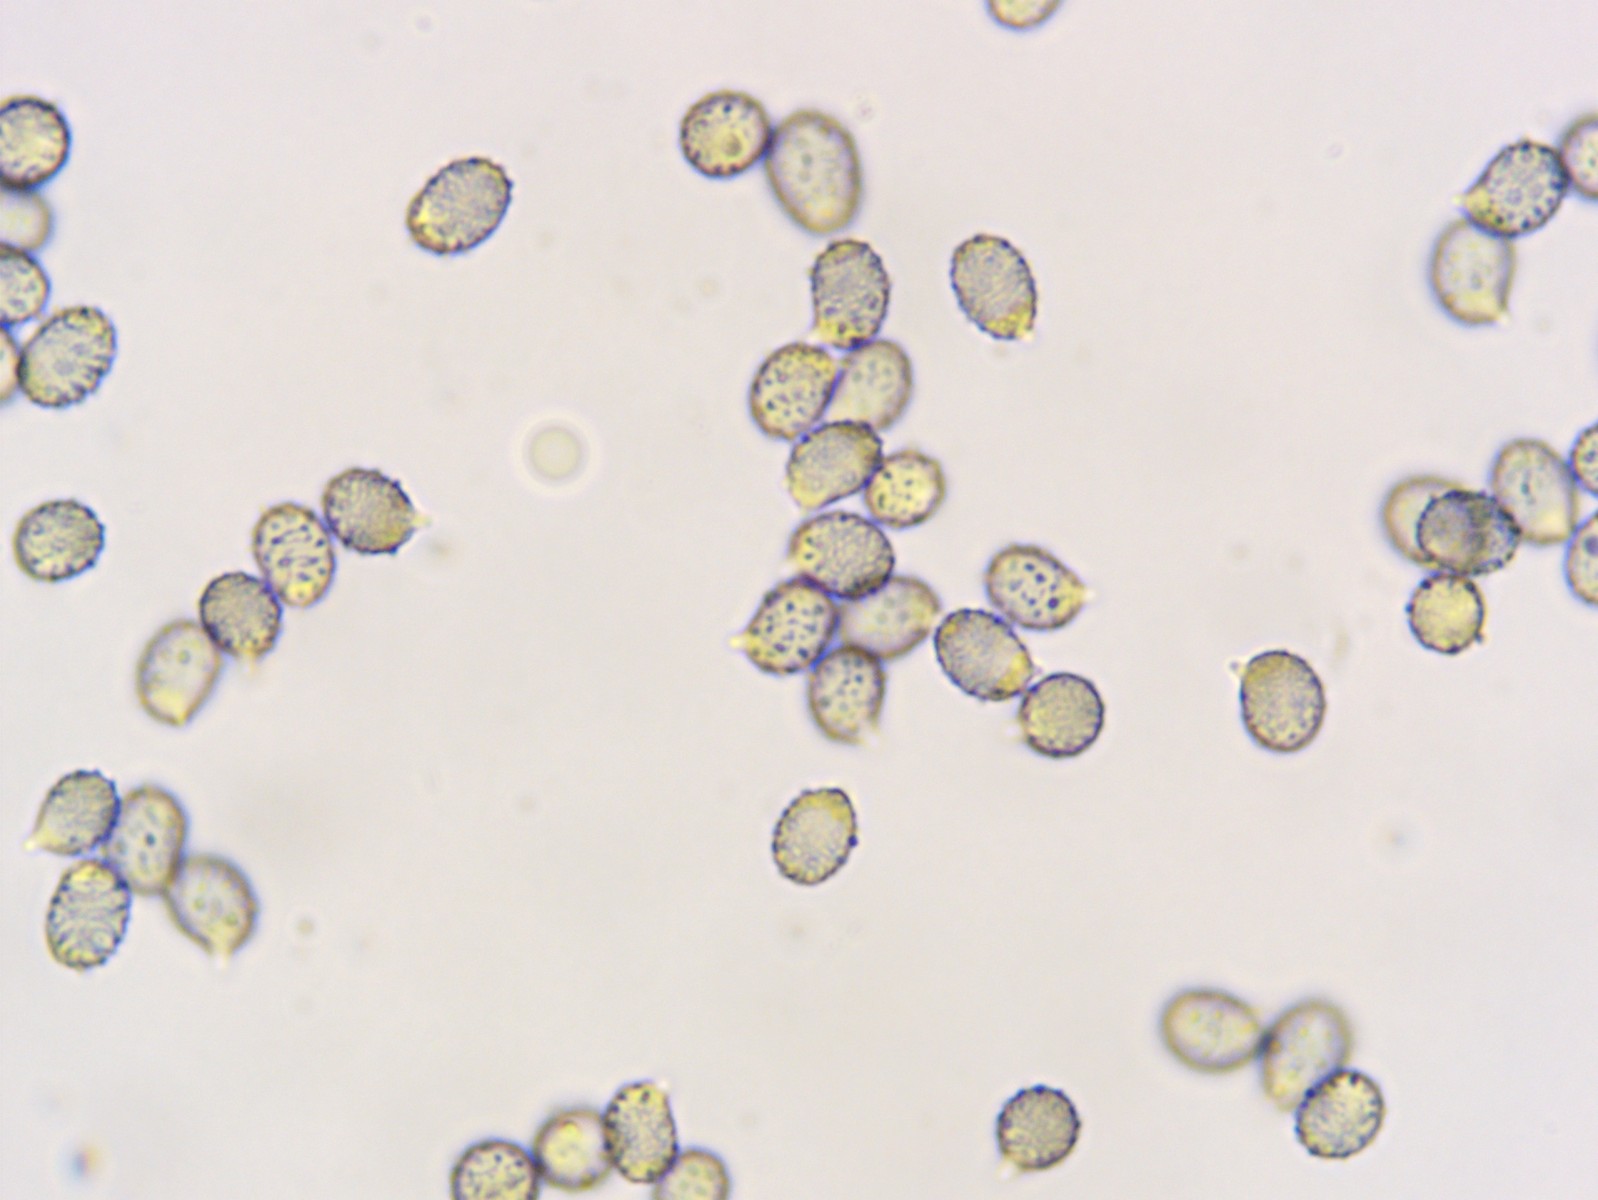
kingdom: Fungi
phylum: Basidiomycota
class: Agaricomycetes
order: Russulales
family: Russulaceae
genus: Russula
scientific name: Russula aeruginea
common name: græsgrøn skørhat
